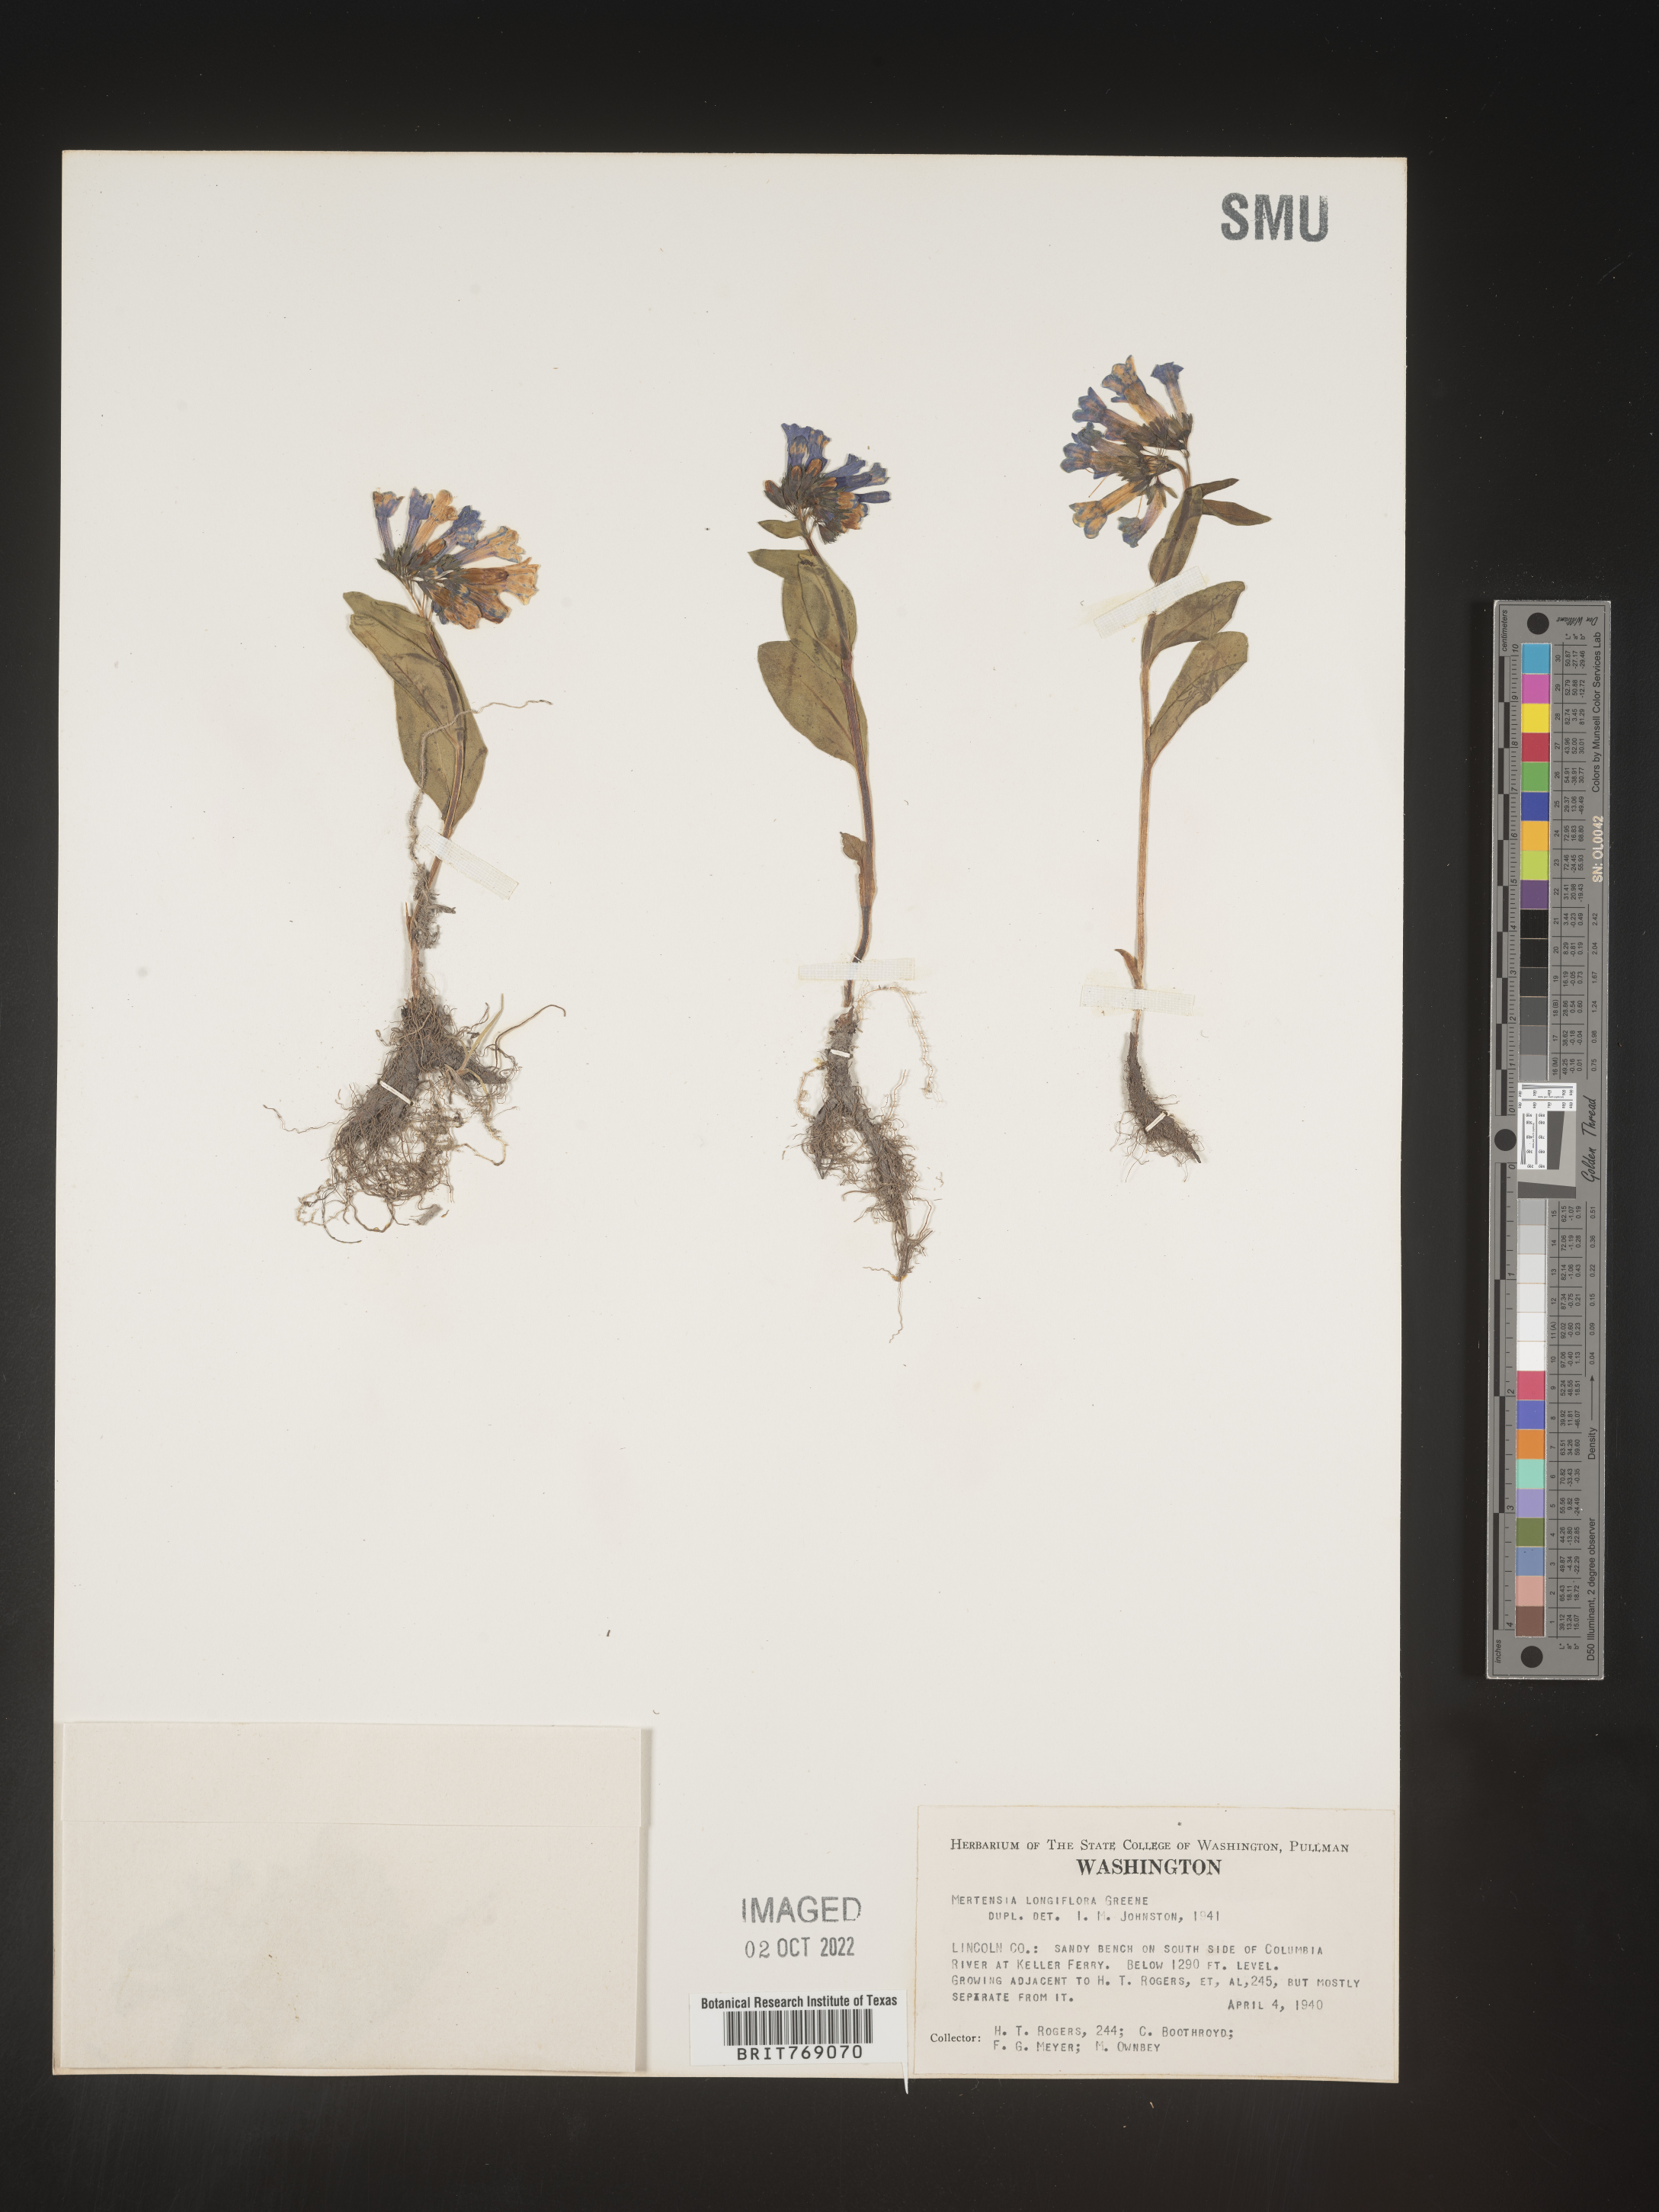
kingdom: Plantae
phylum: Tracheophyta
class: Magnoliopsida
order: Boraginales
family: Boraginaceae
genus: Mertensia
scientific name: Mertensia
